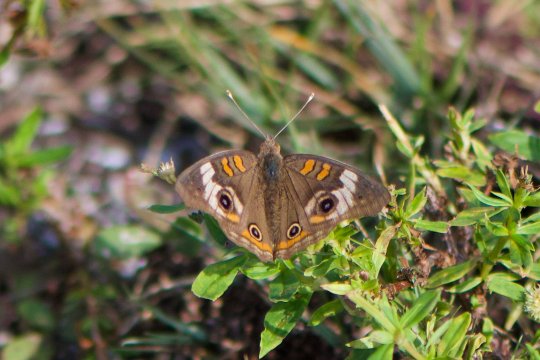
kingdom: Animalia
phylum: Arthropoda
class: Insecta
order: Lepidoptera
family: Nymphalidae
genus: Junonia
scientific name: Junonia coenia
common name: Common Buckeye
